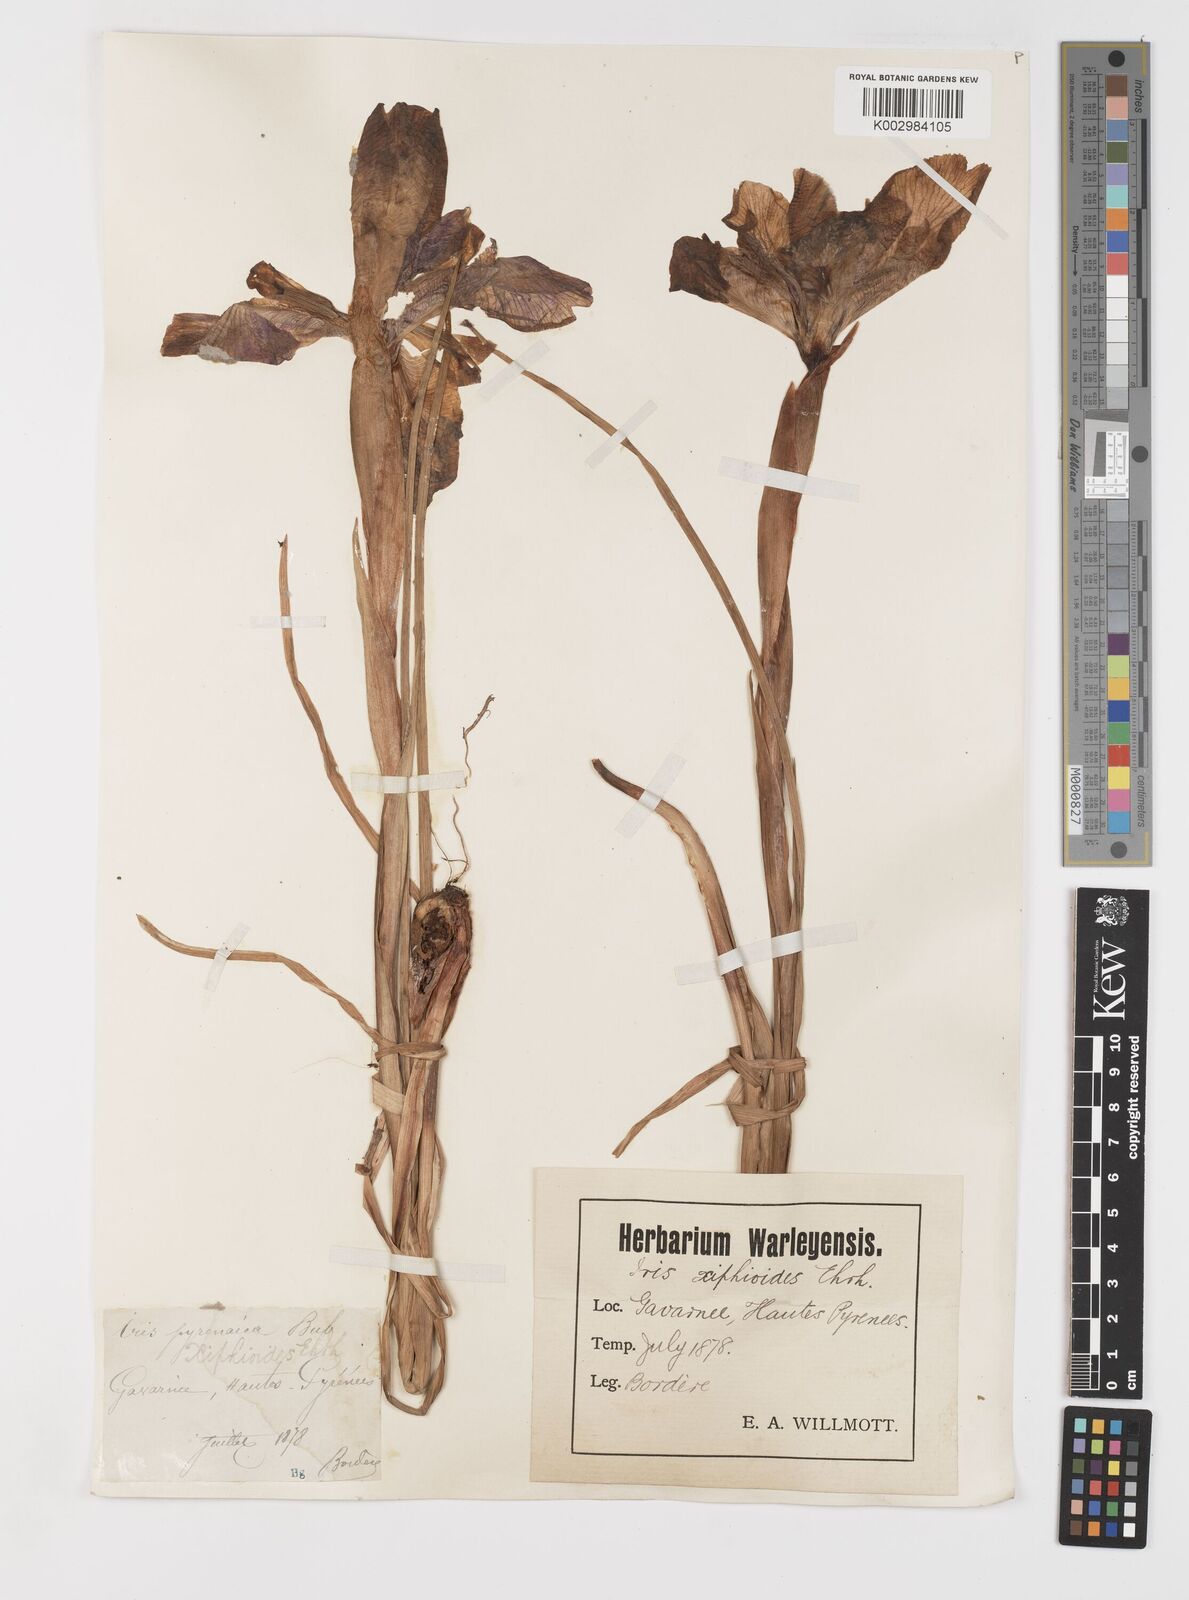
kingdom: Plantae
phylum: Tracheophyta
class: Liliopsida
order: Asparagales
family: Iridaceae
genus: Iris
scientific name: Iris jacquinii
